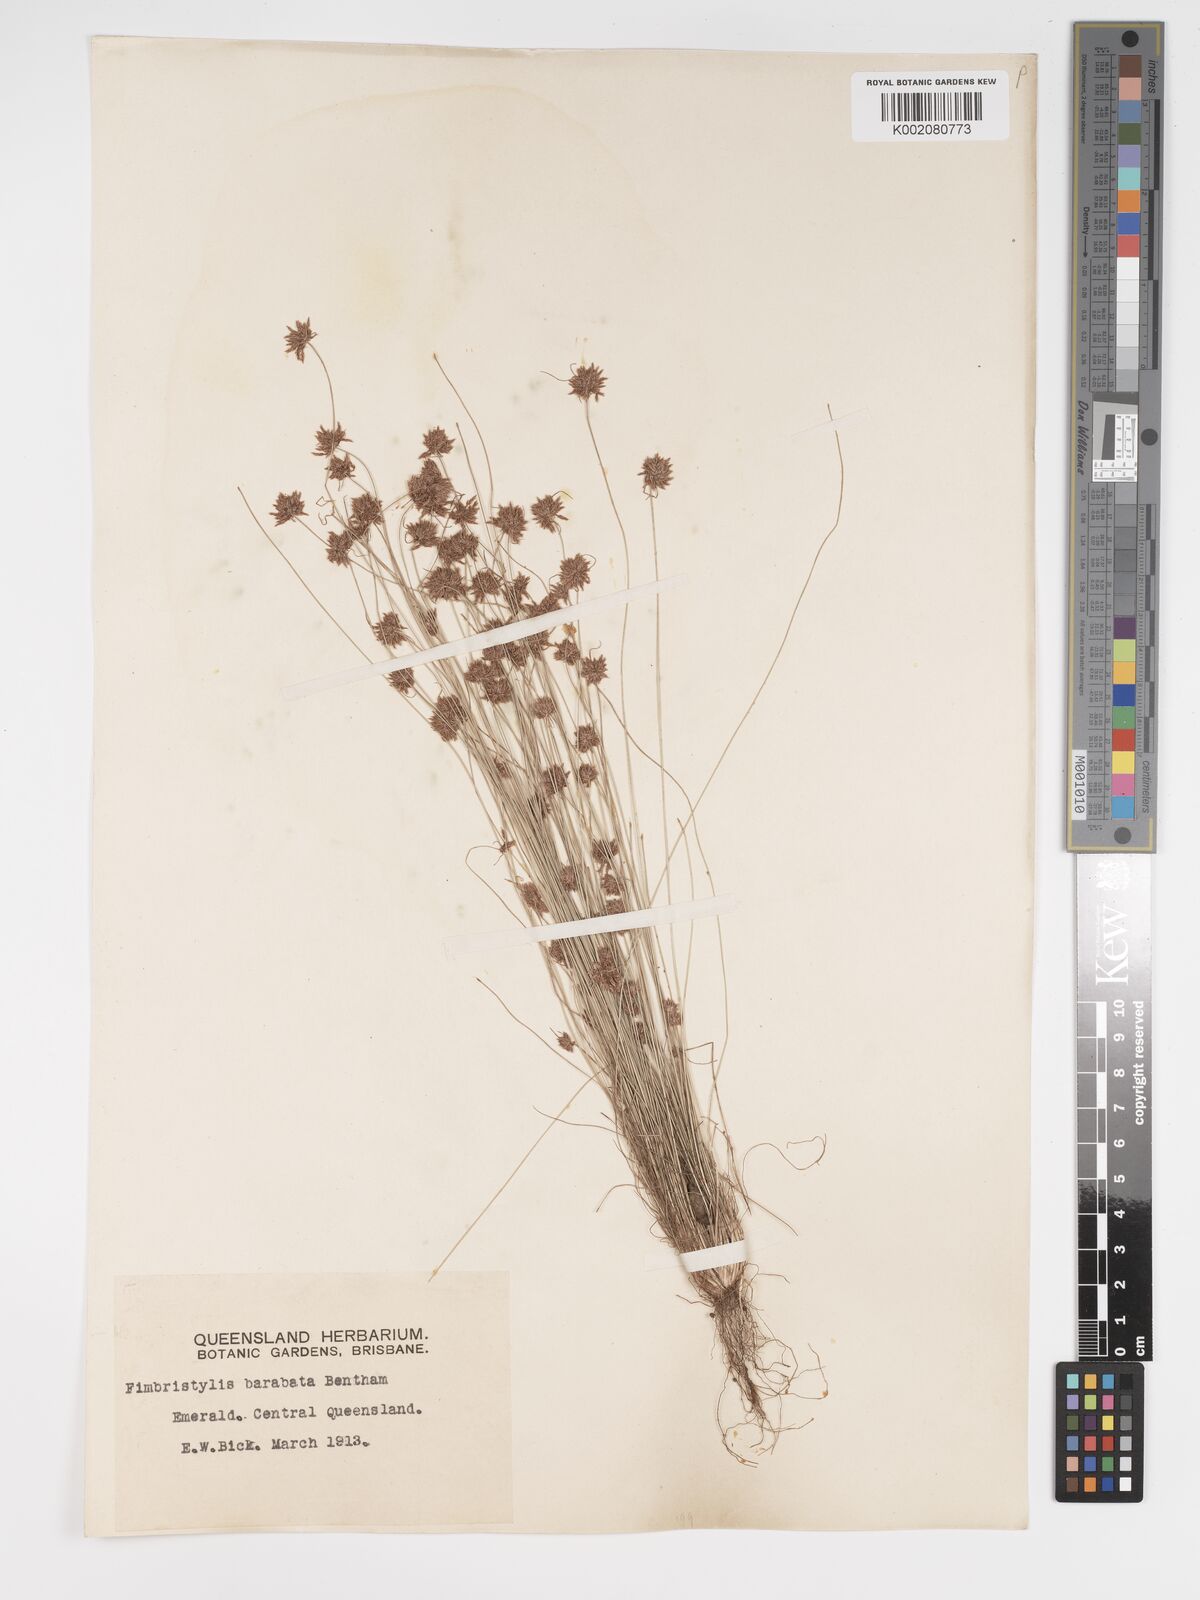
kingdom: Plantae
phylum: Tracheophyta
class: Liliopsida
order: Poales
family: Cyperaceae
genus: Bulbostylis
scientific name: Bulbostylis barbata
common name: Watergrass
